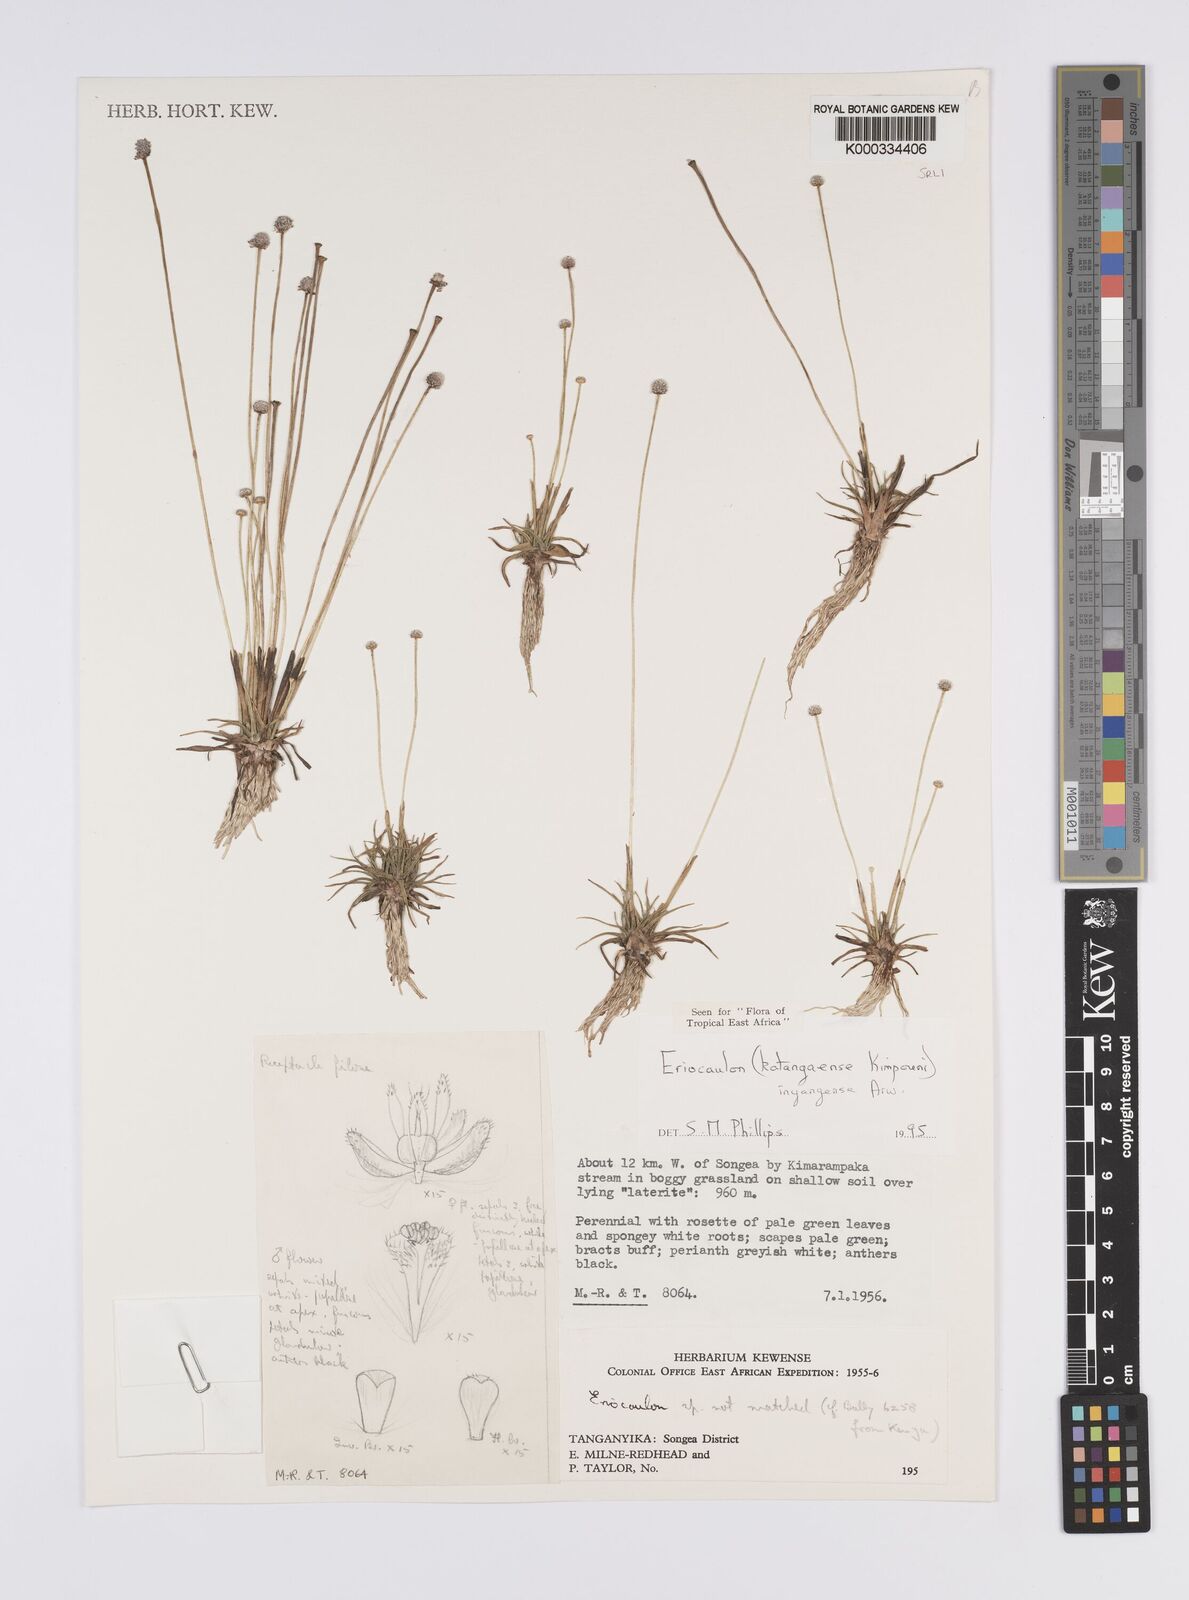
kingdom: Plantae
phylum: Tracheophyta
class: Liliopsida
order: Poales
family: Eriocaulaceae
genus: Eriocaulon
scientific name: Eriocaulon inyangense
